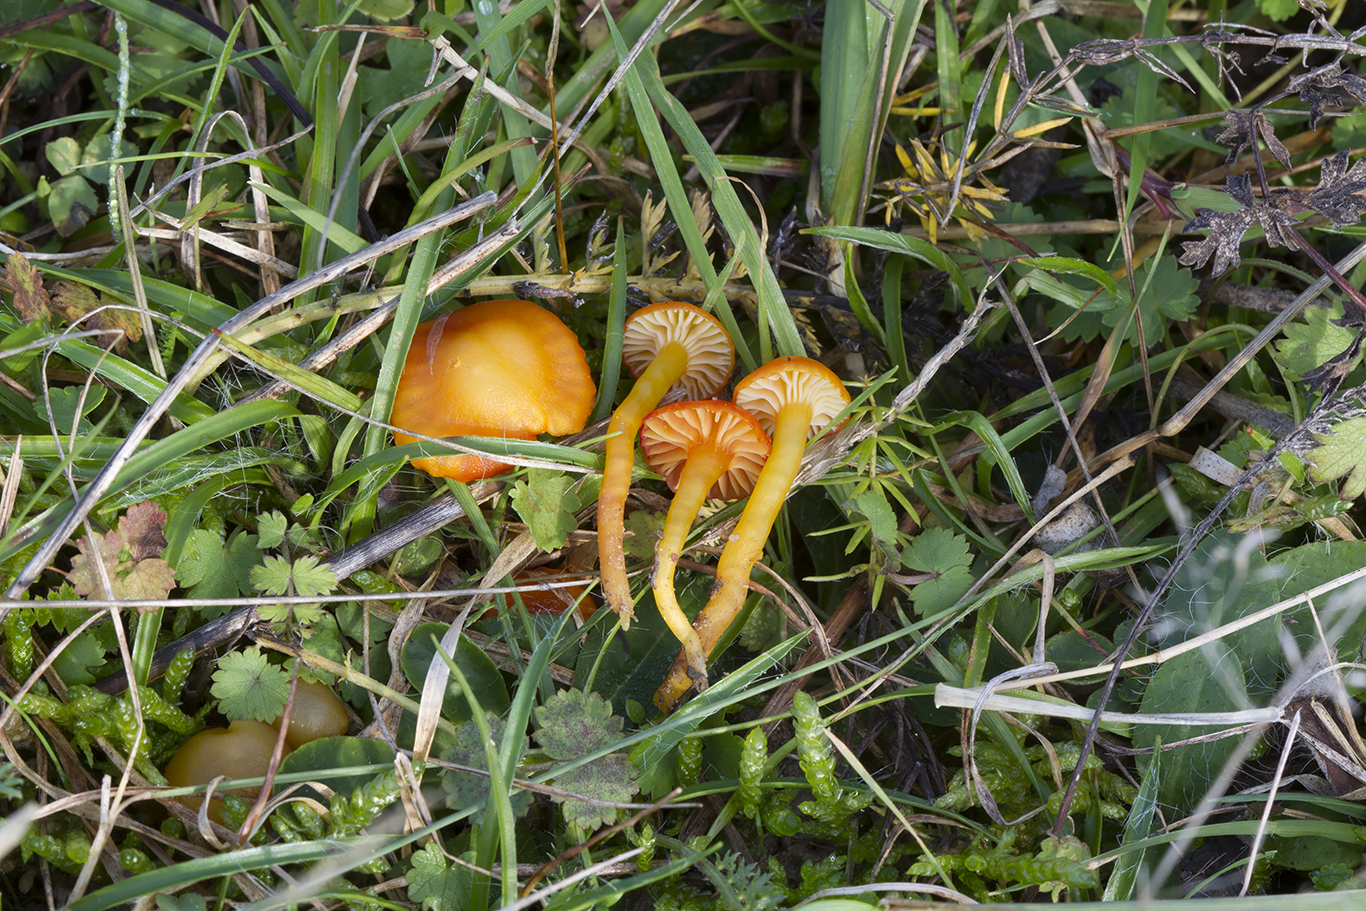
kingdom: Fungi
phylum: Basidiomycota
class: Agaricomycetes
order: Agaricales
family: Hygrophoraceae
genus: Hygrocybe
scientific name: Hygrocybe insipida
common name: liden vokshat
